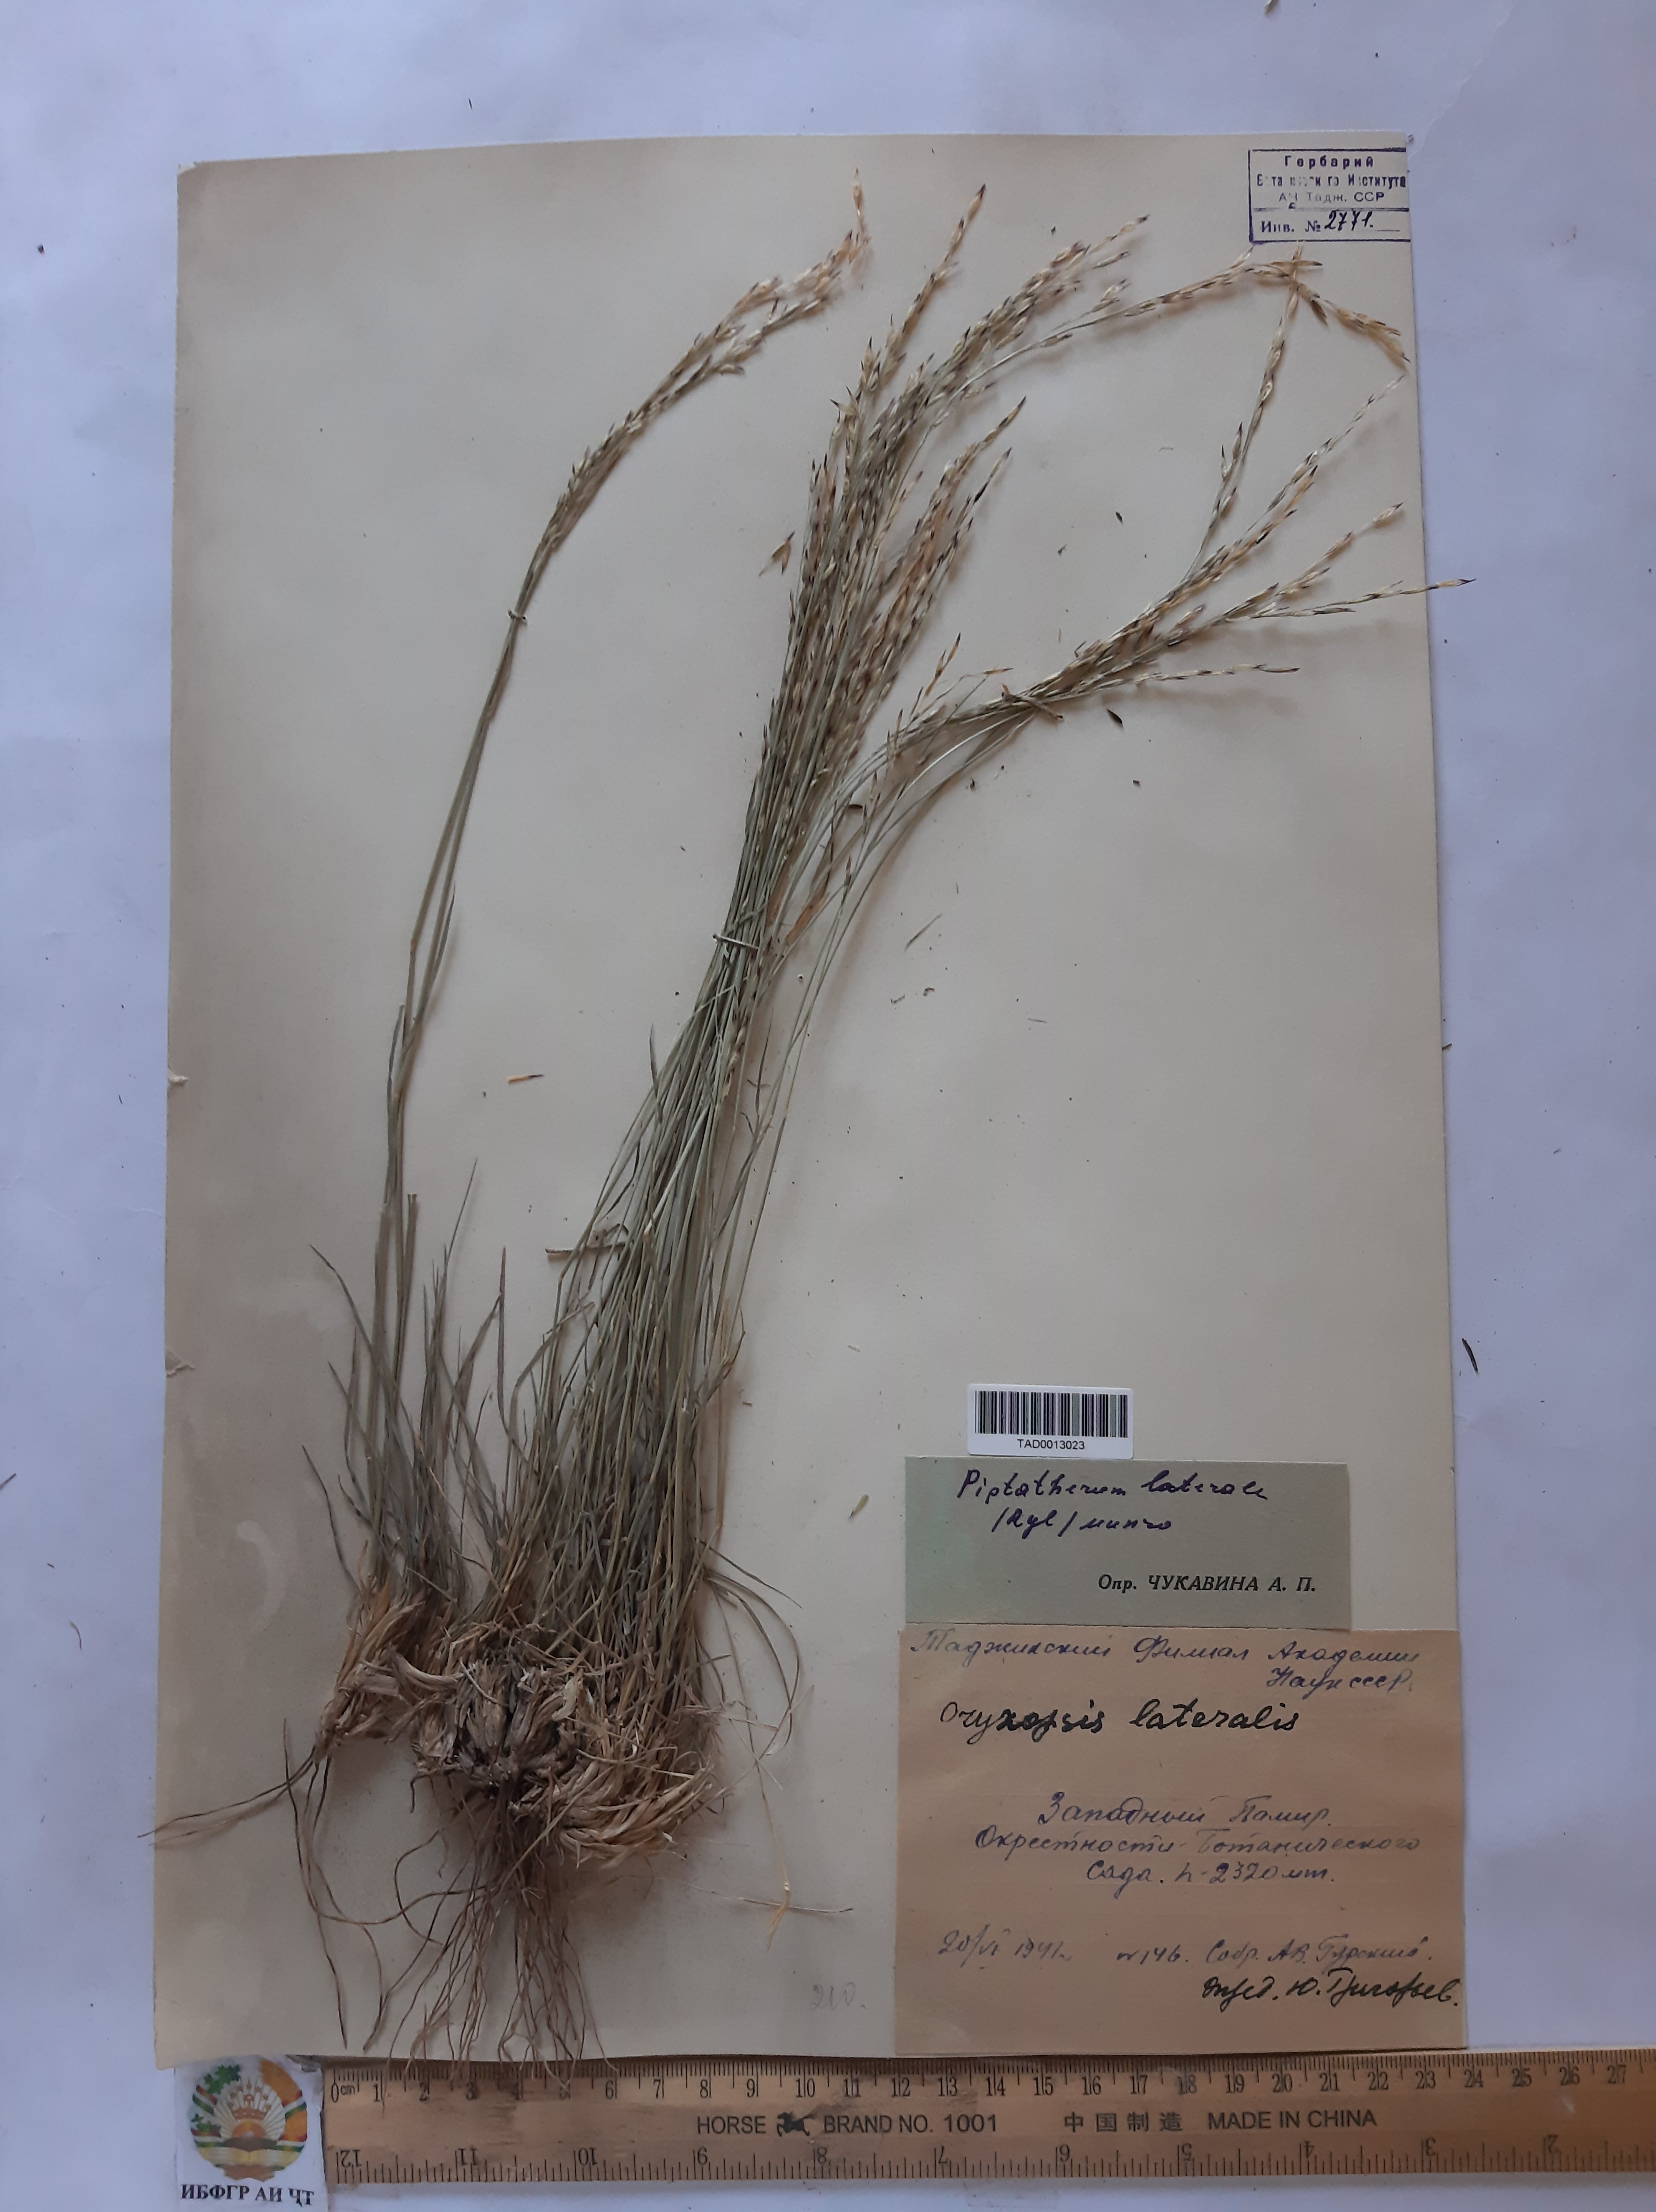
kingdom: Plantae
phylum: Tracheophyta
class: Liliopsida
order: Poales
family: Poaceae
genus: Piptatherum
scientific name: Piptatherum laterale
